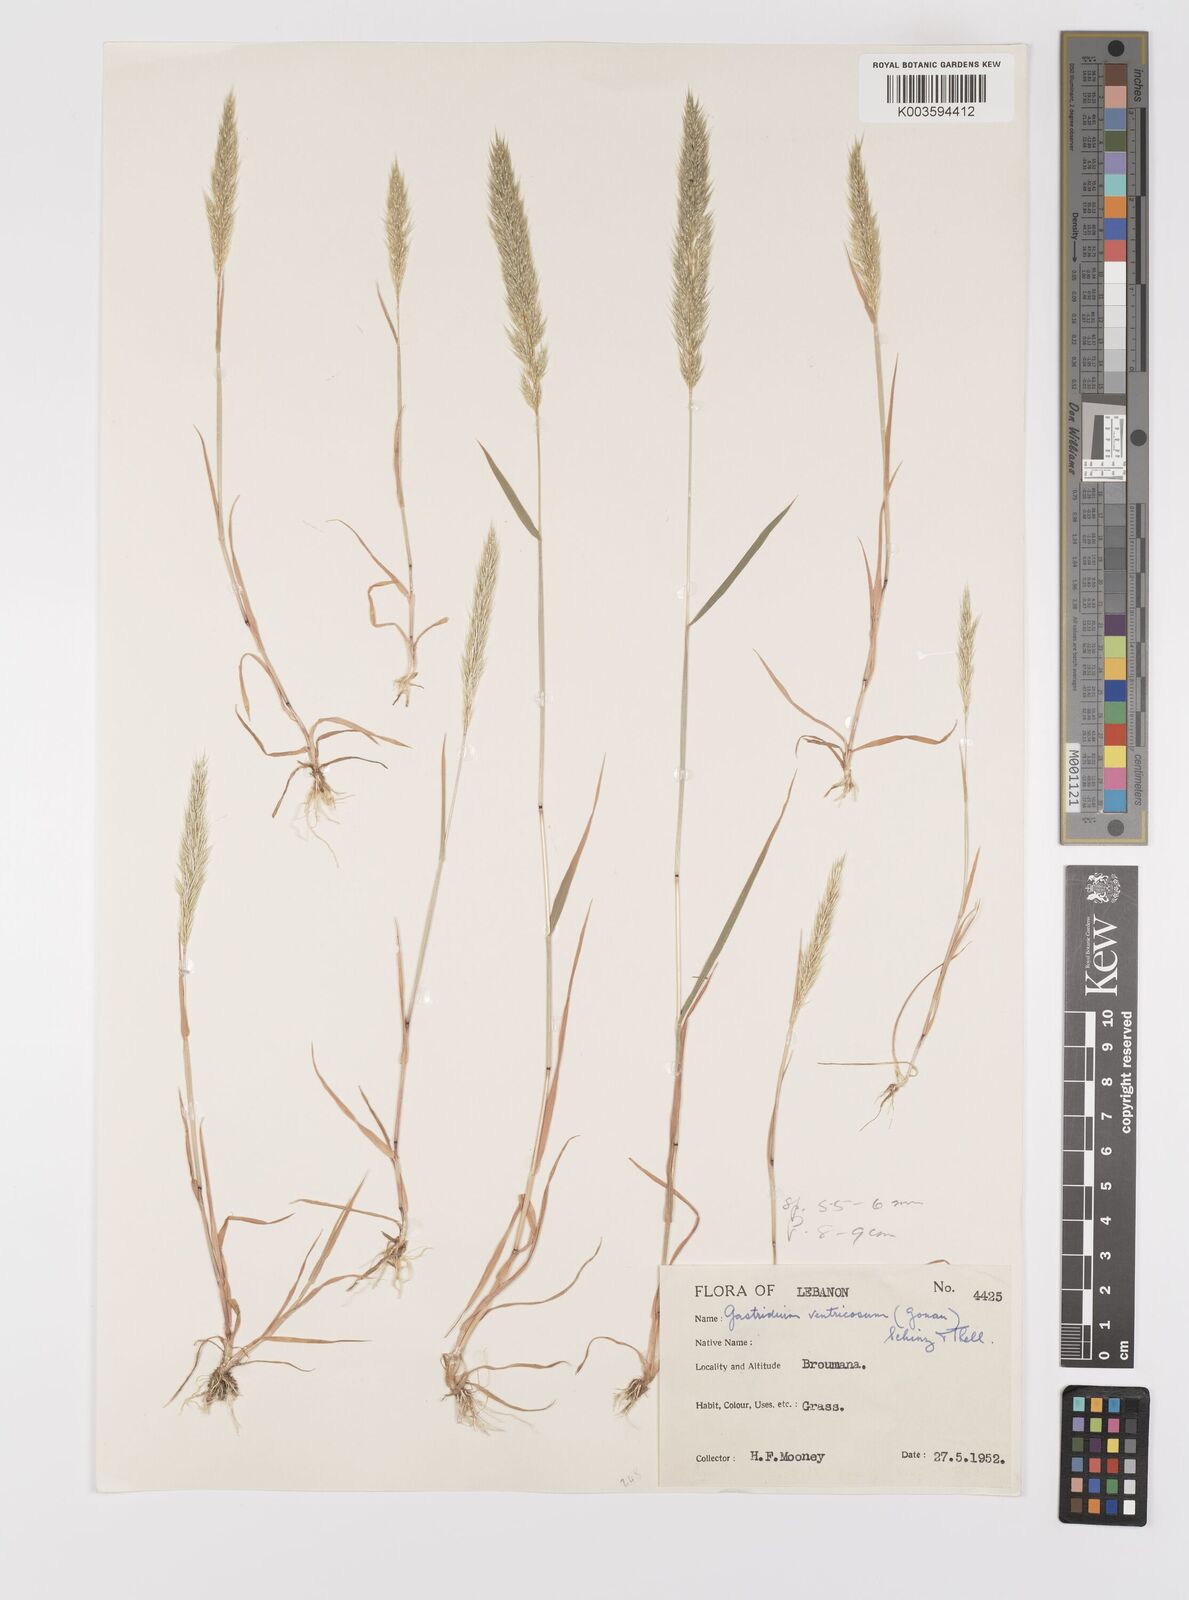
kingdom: Plantae
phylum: Tracheophyta
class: Liliopsida
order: Poales
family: Poaceae
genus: Gastridium
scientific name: Gastridium phleoides
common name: Nit grass
